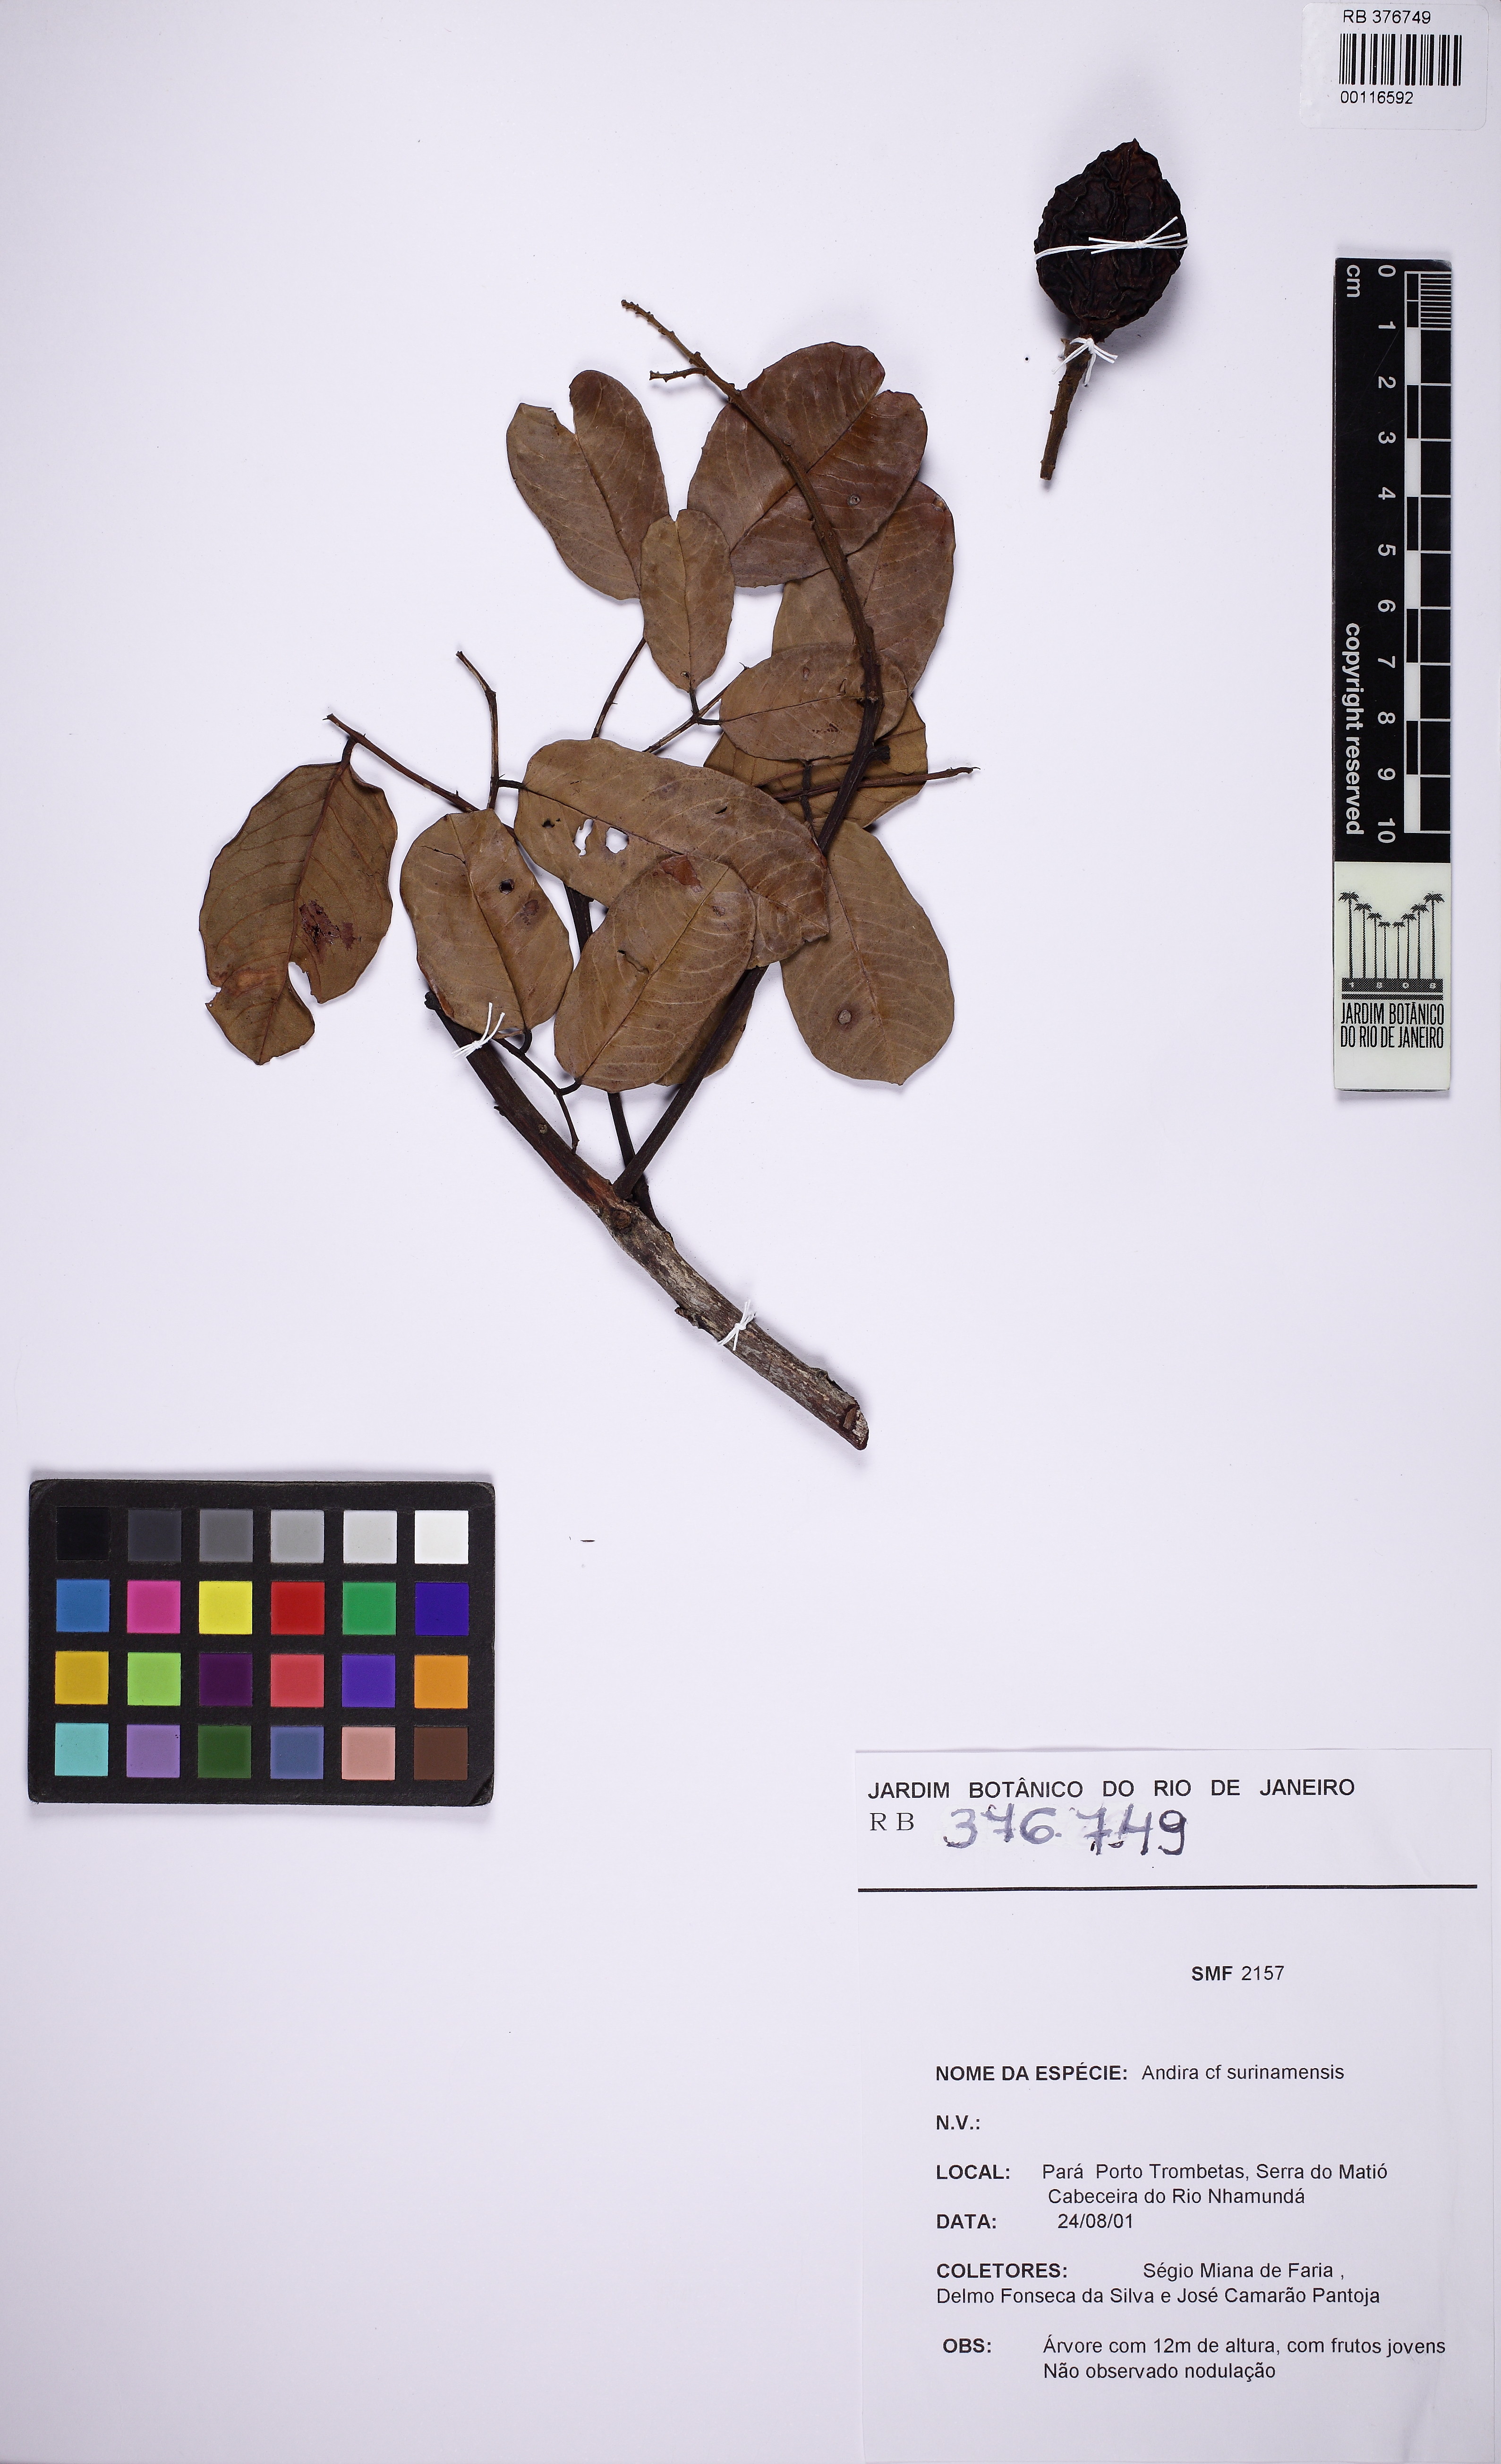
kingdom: Plantae
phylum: Tracheophyta
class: Magnoliopsida
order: Fabales
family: Fabaceae
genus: Andira
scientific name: Andira surinamensis
